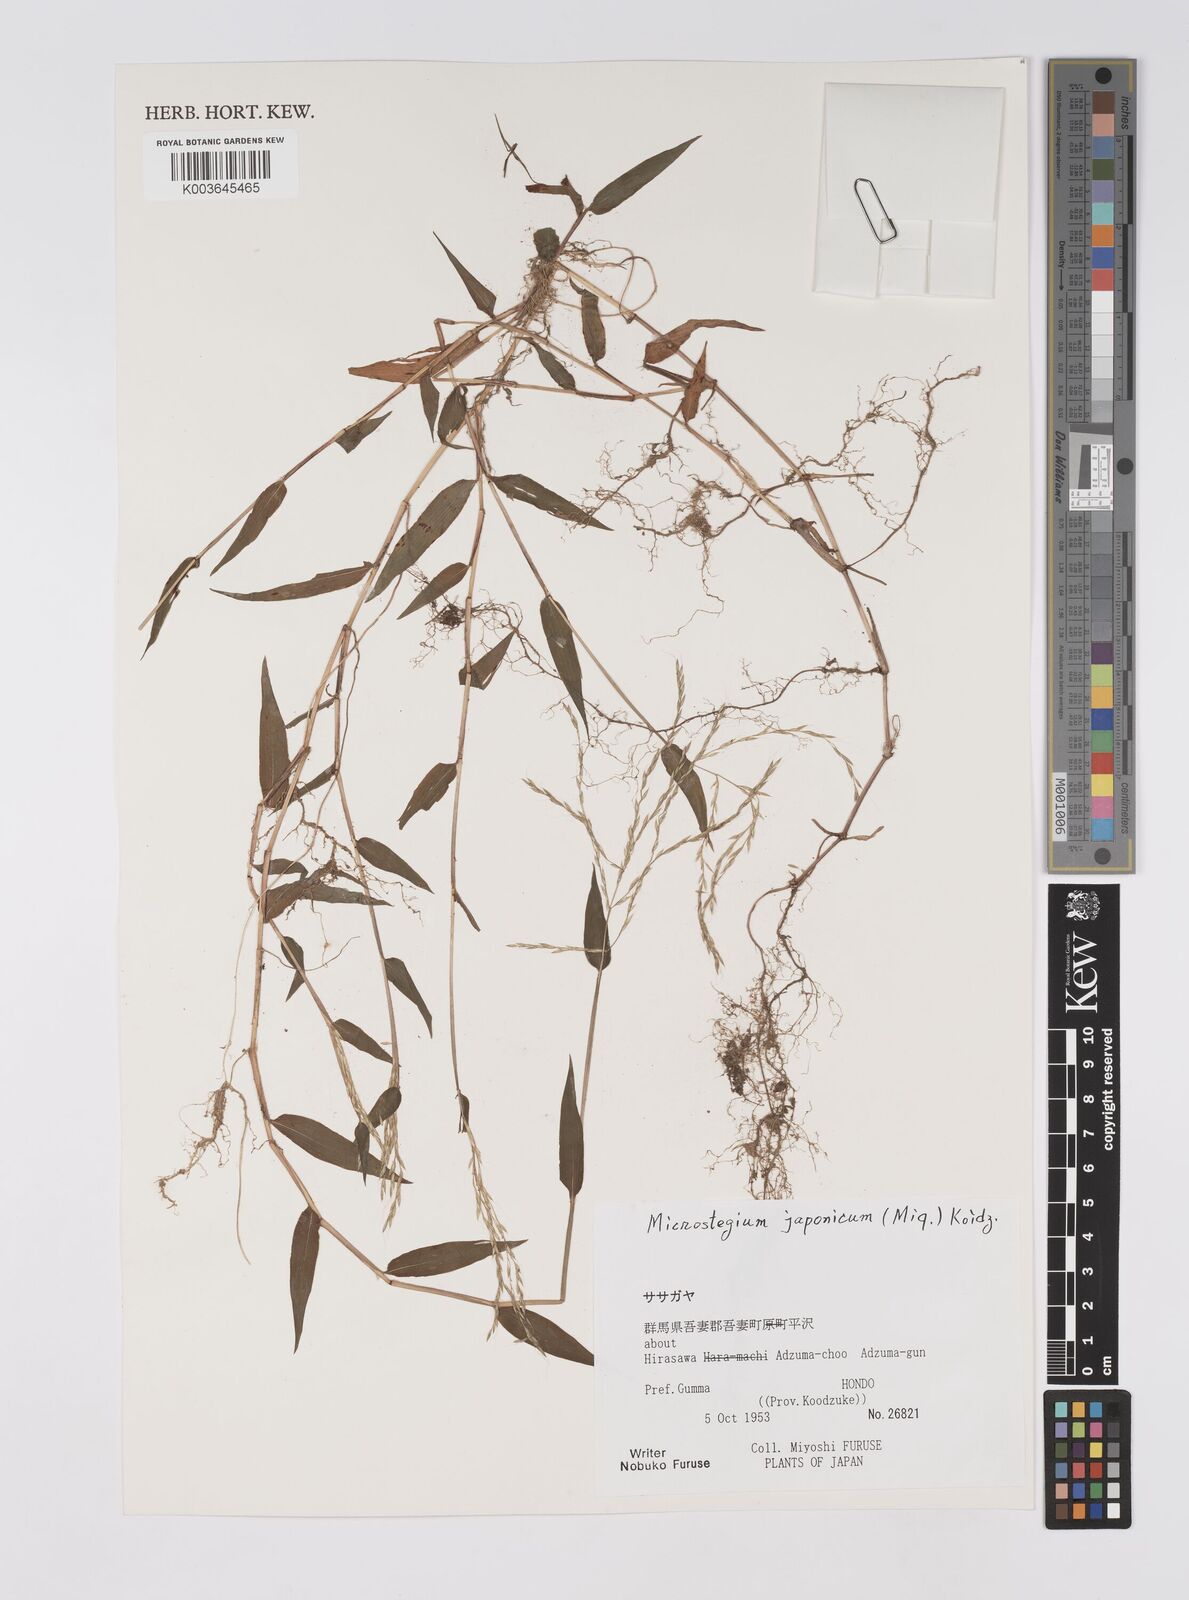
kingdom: Plantae
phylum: Tracheophyta
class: Liliopsida
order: Poales
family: Poaceae
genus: Microstegium
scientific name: Microstegium japonicum
